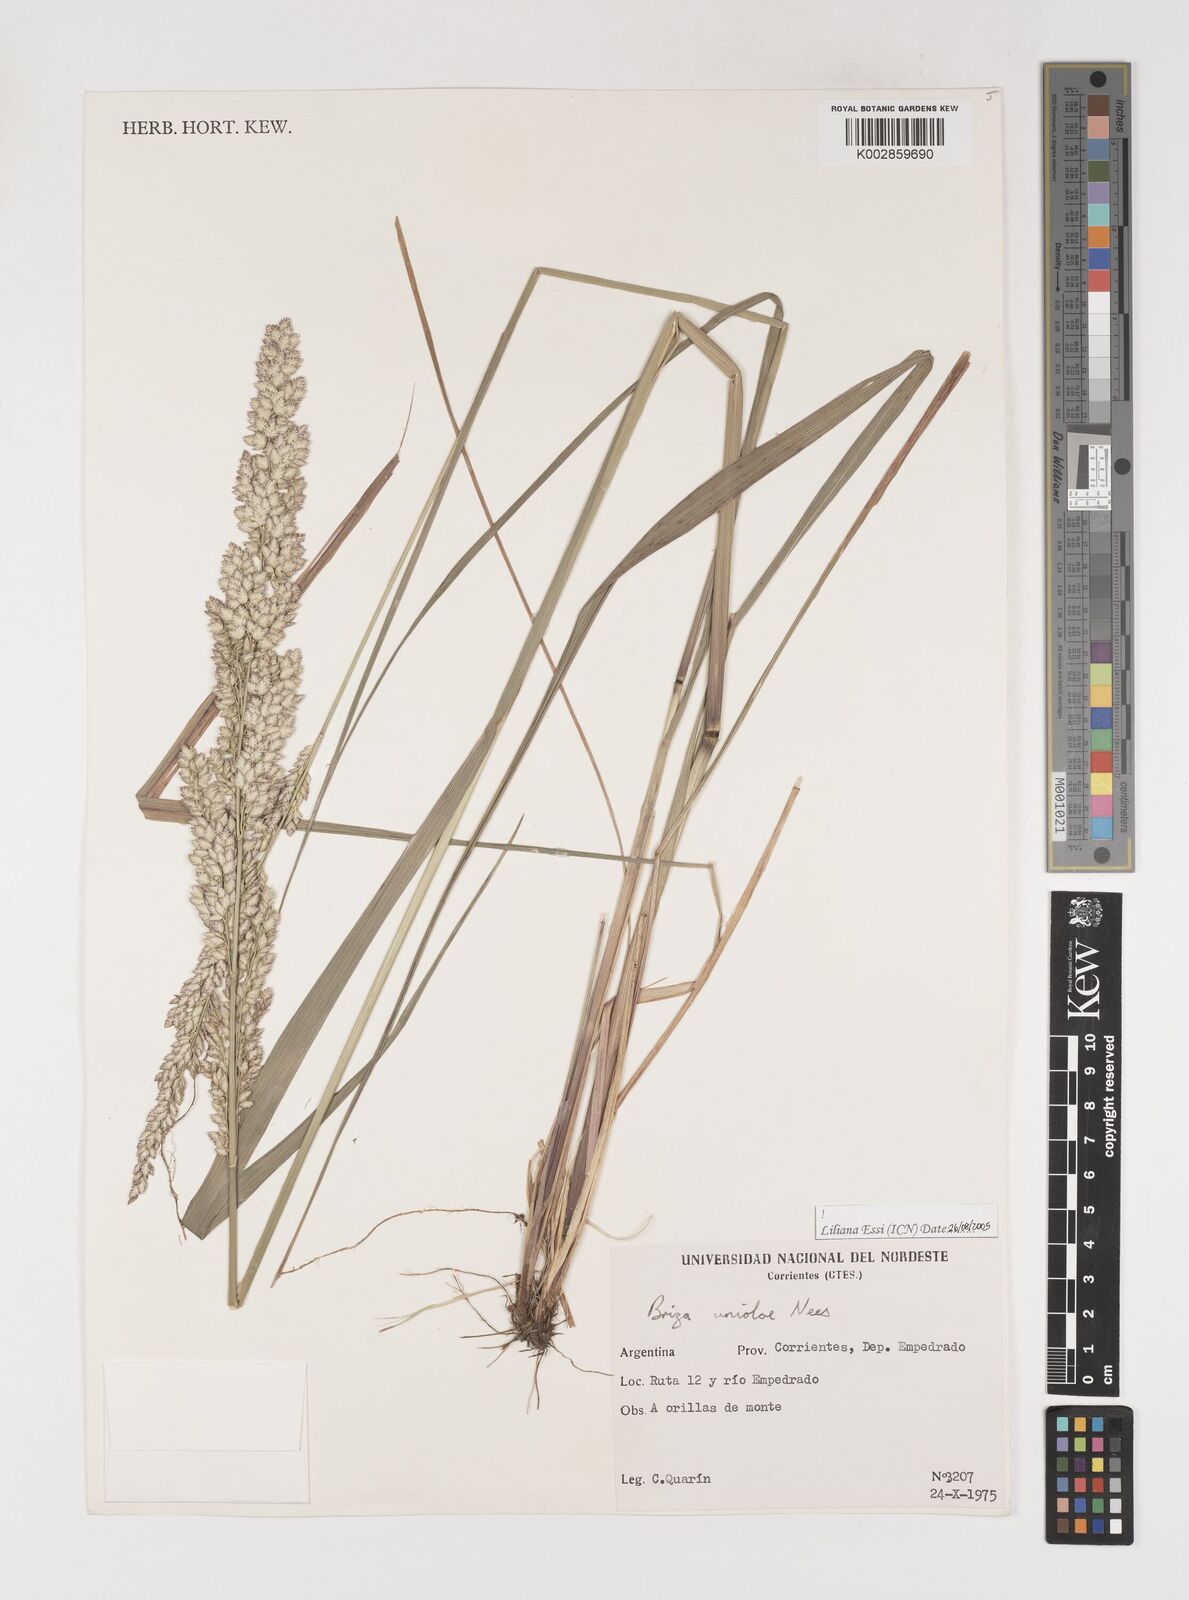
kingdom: Plantae
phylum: Tracheophyta
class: Liliopsida
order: Poales
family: Poaceae
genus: Poidium
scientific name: Poidium uniolae
